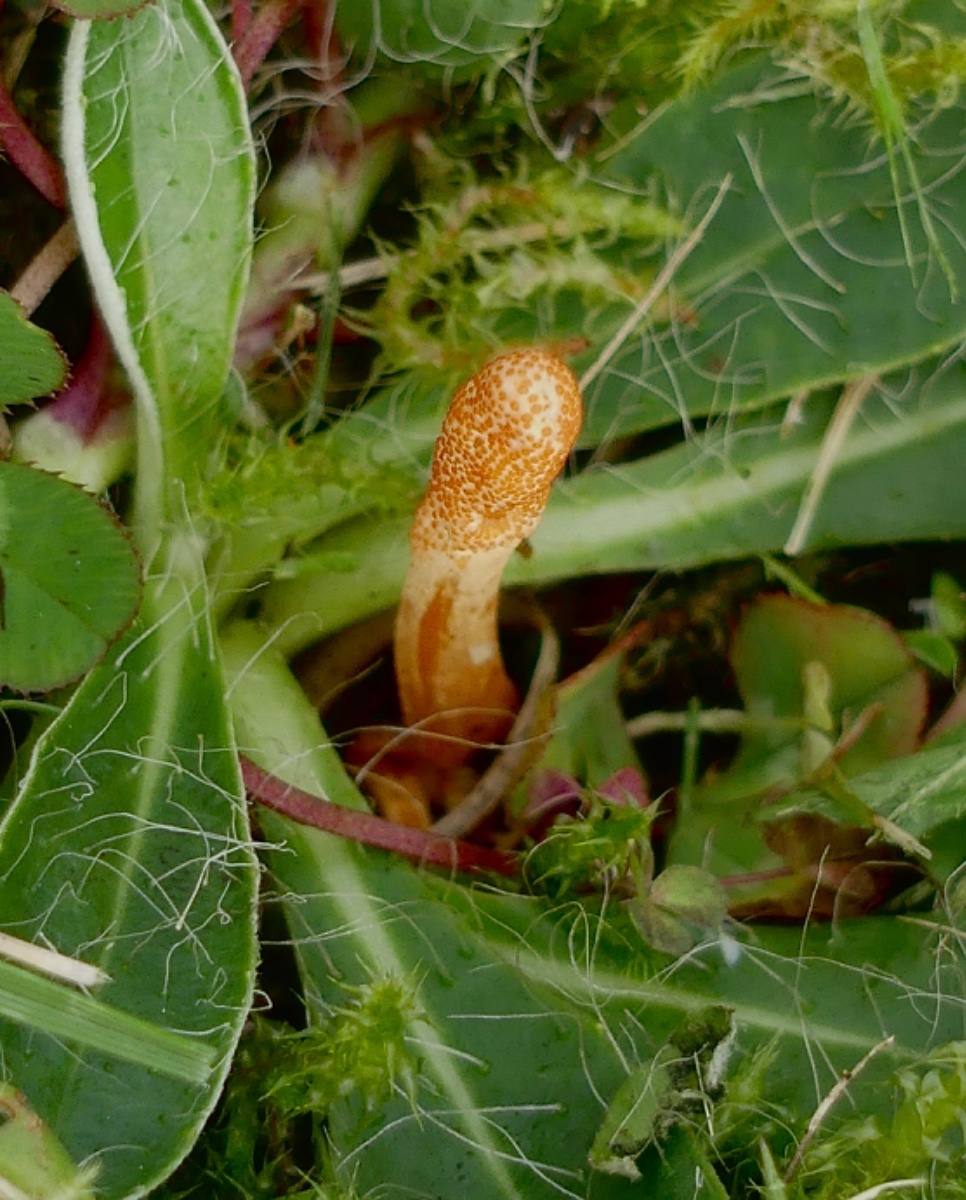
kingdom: Fungi
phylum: Ascomycota
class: Sordariomycetes
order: Hypocreales
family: Cordycipitaceae
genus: Cordyceps
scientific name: Cordyceps militaris
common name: puppe-snyltekølle
